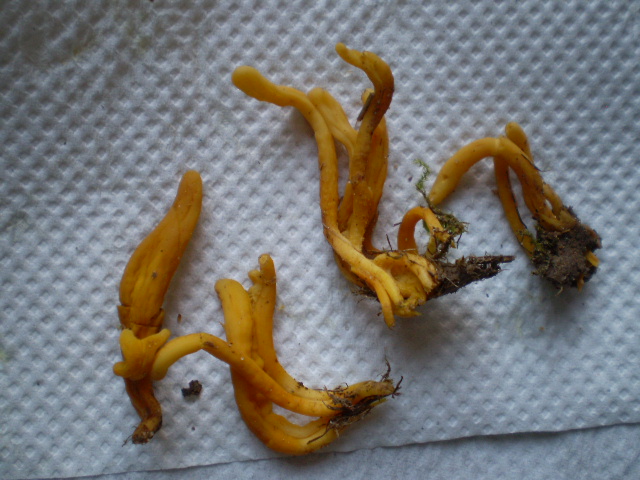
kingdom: Fungi
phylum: Basidiomycota
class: Agaricomycetes
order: Agaricales
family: Clavariaceae
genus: Clavulinopsis
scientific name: Clavulinopsis helvola
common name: orangegul køllesvamp
